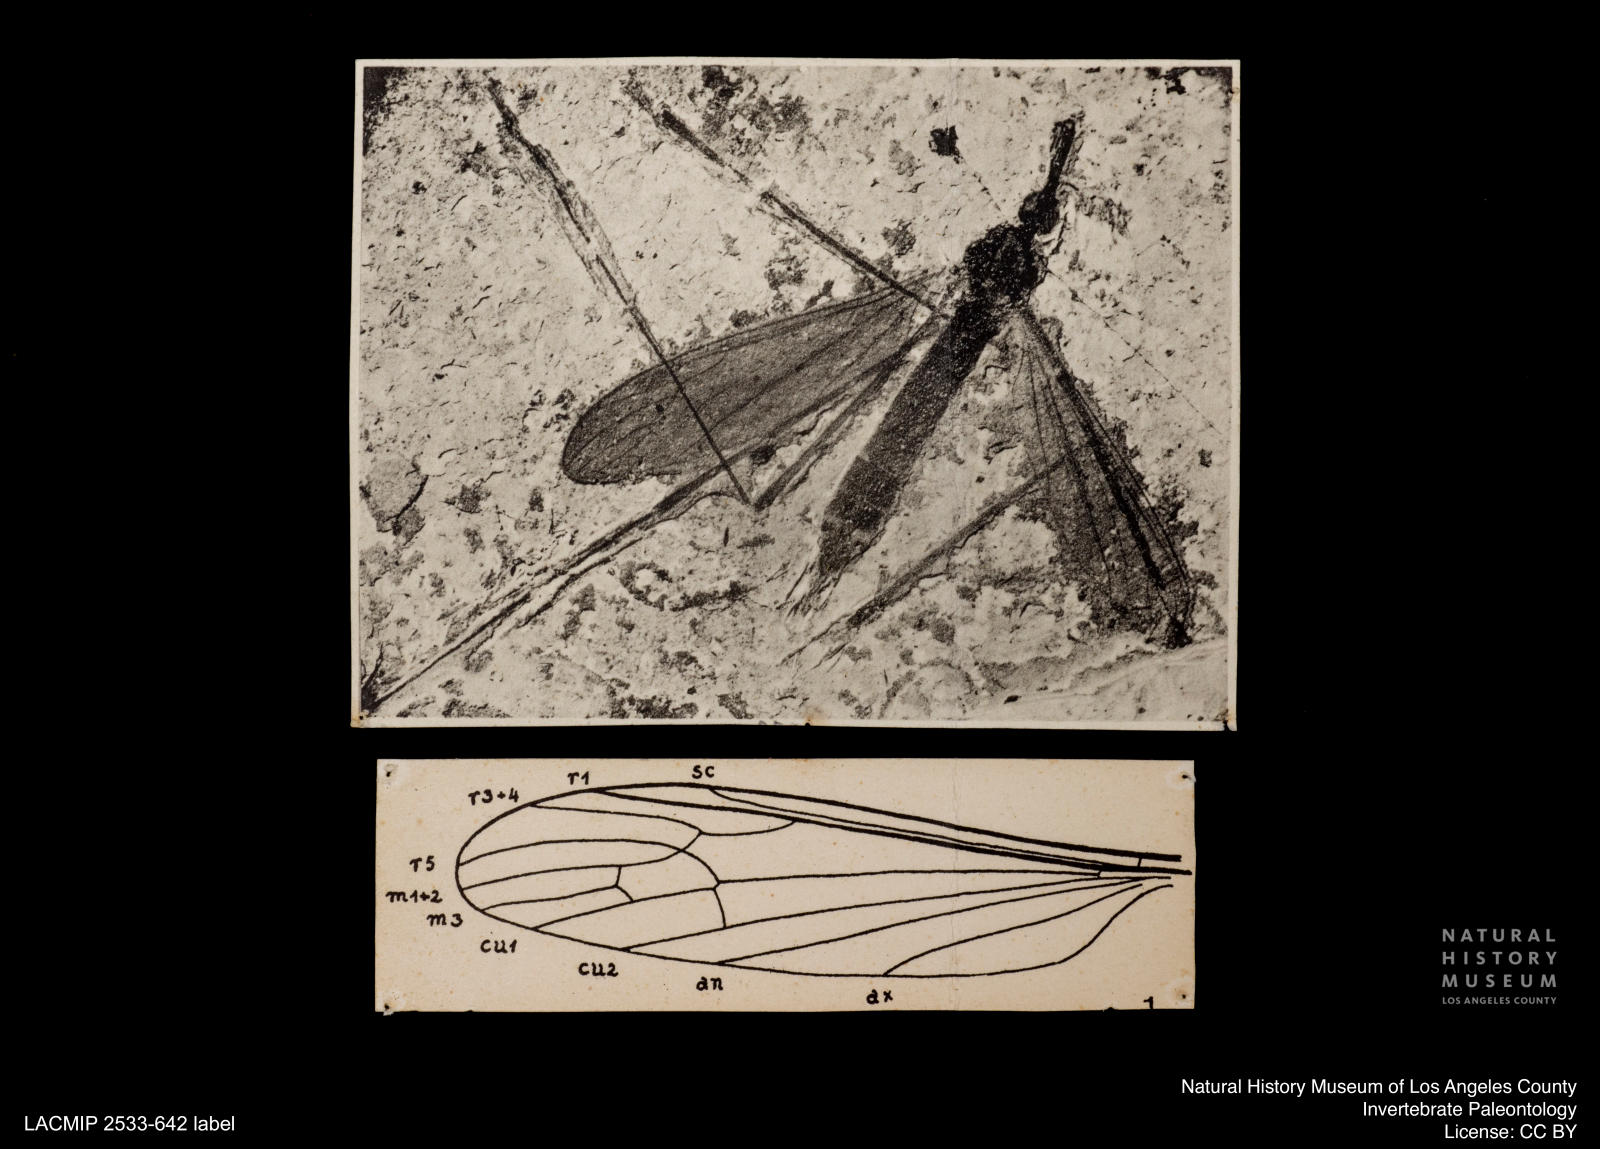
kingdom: Animalia
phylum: Arthropoda
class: Insecta
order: Diptera
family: Limoniidae
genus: Helius
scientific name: Helius tenerus
